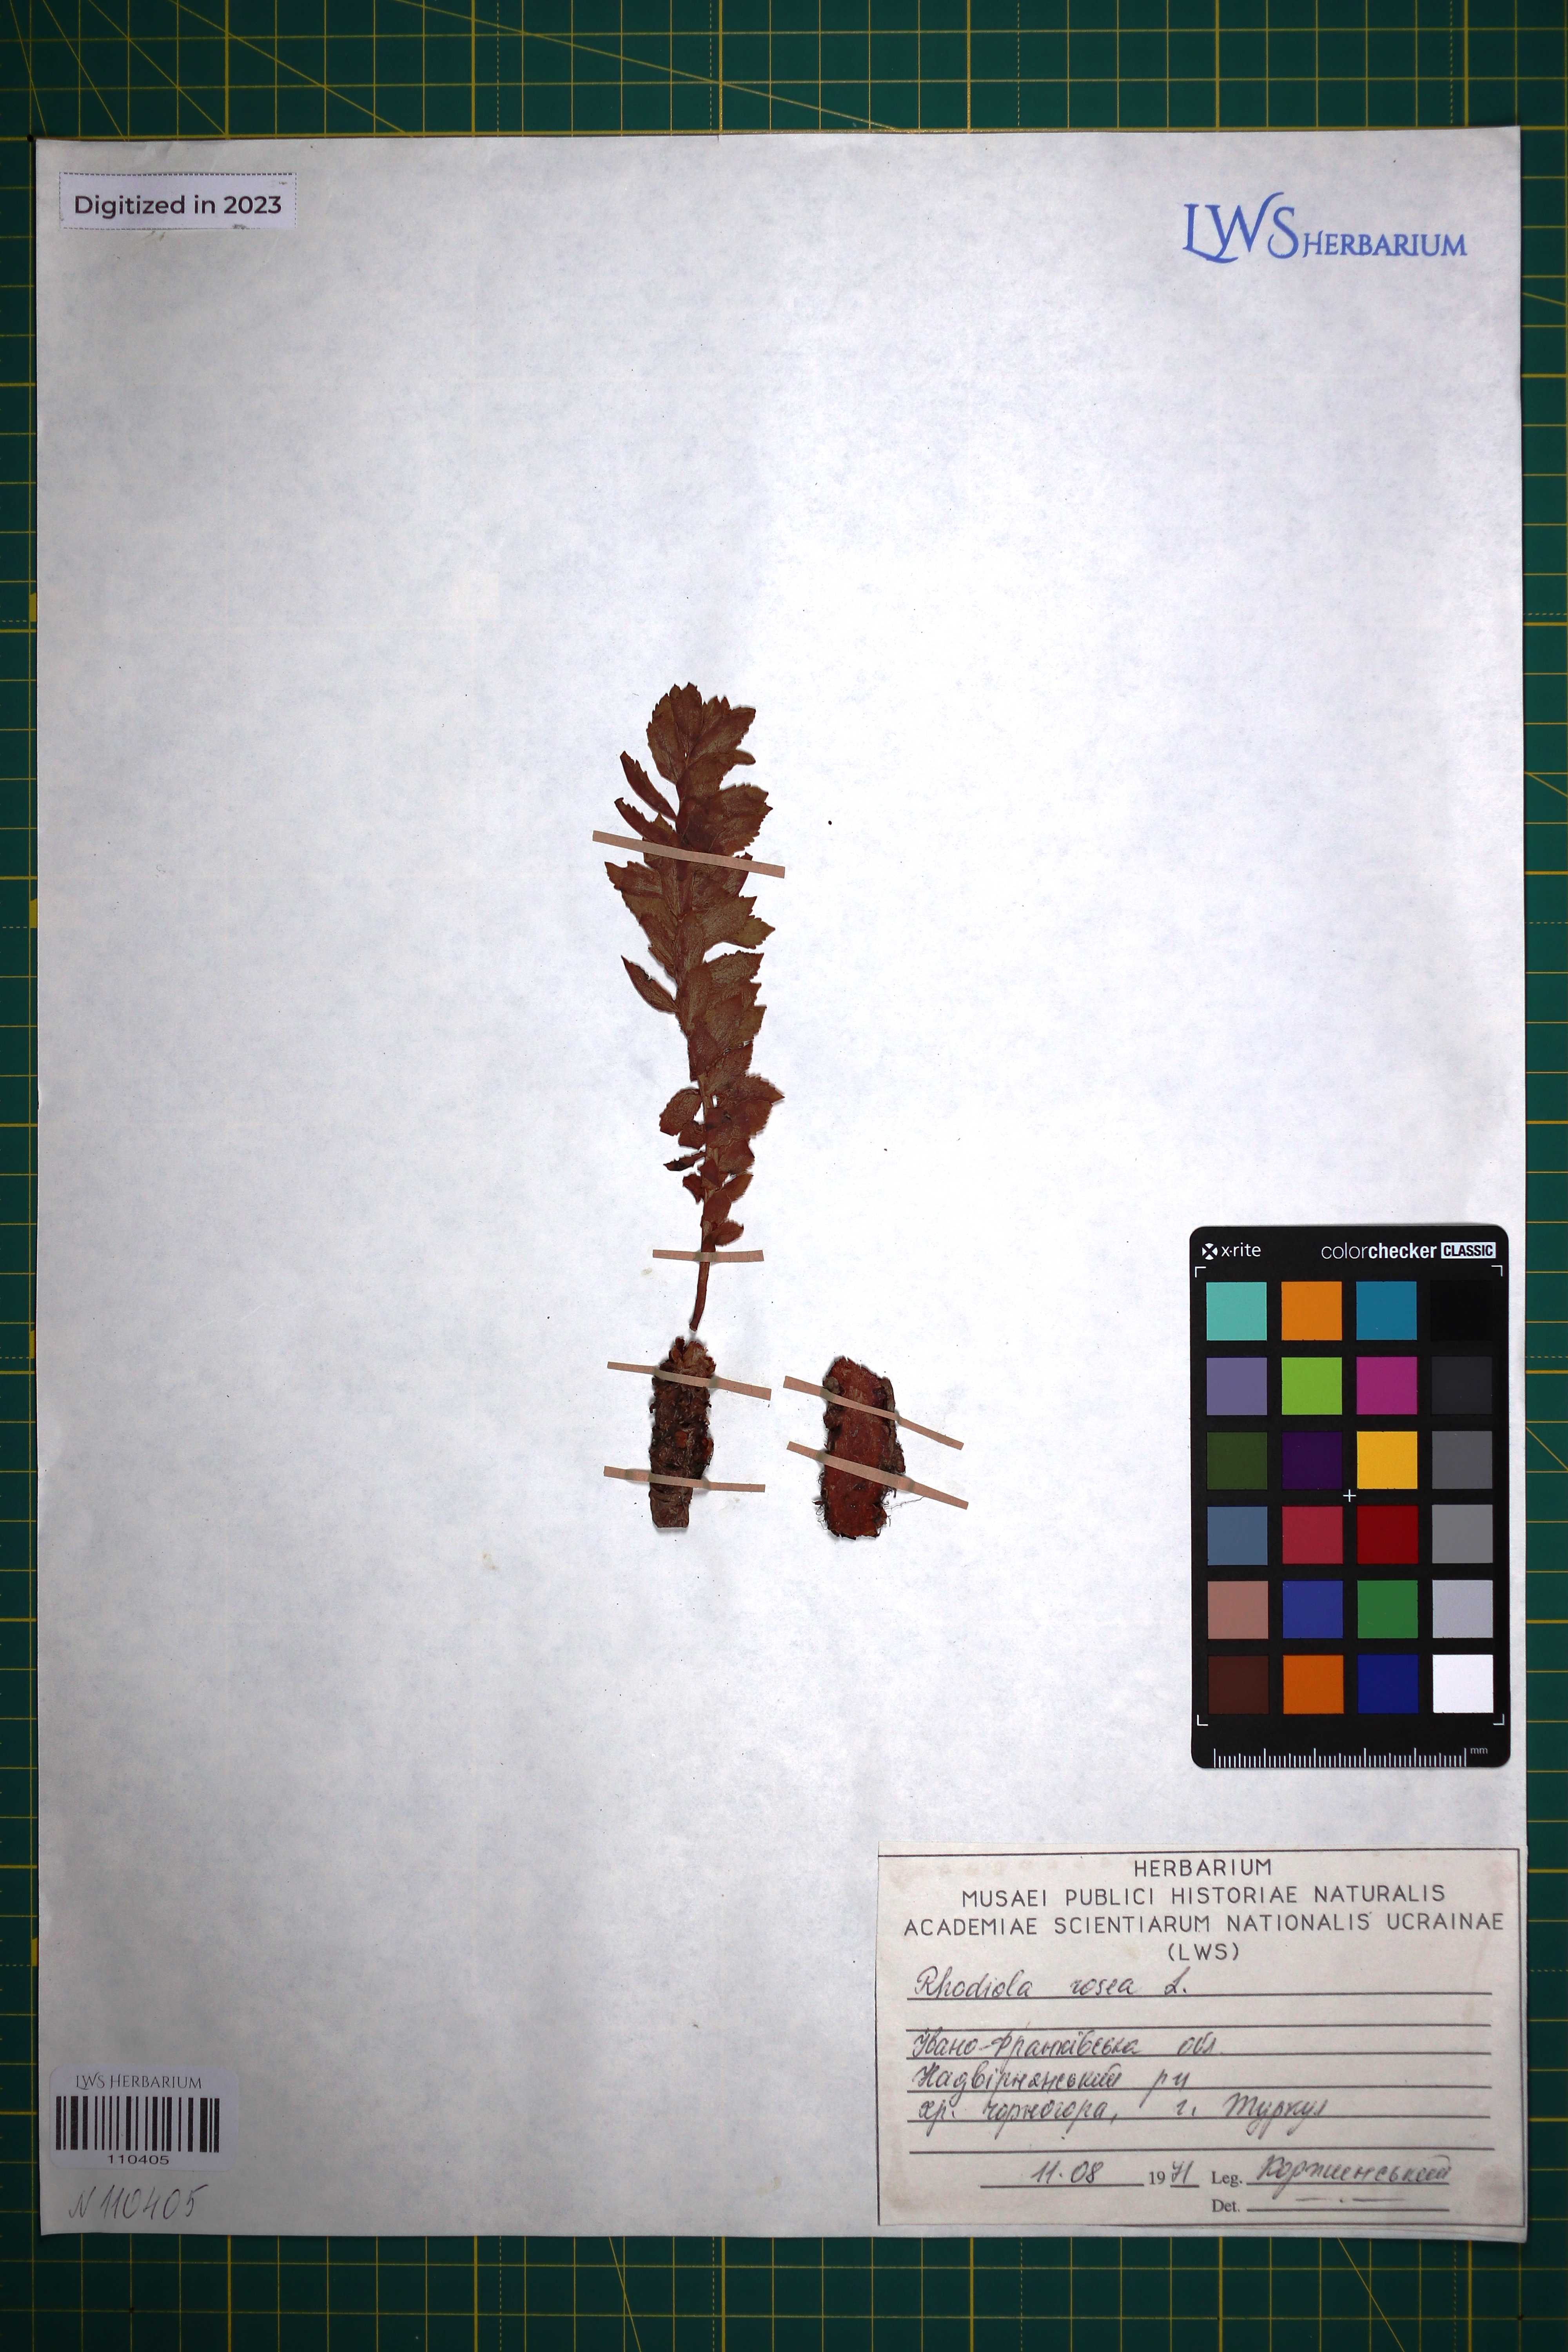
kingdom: Plantae
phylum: Tracheophyta
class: Magnoliopsida
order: Saxifragales
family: Crassulaceae
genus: Rhodiola
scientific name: Rhodiola rosea
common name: Roseroot
